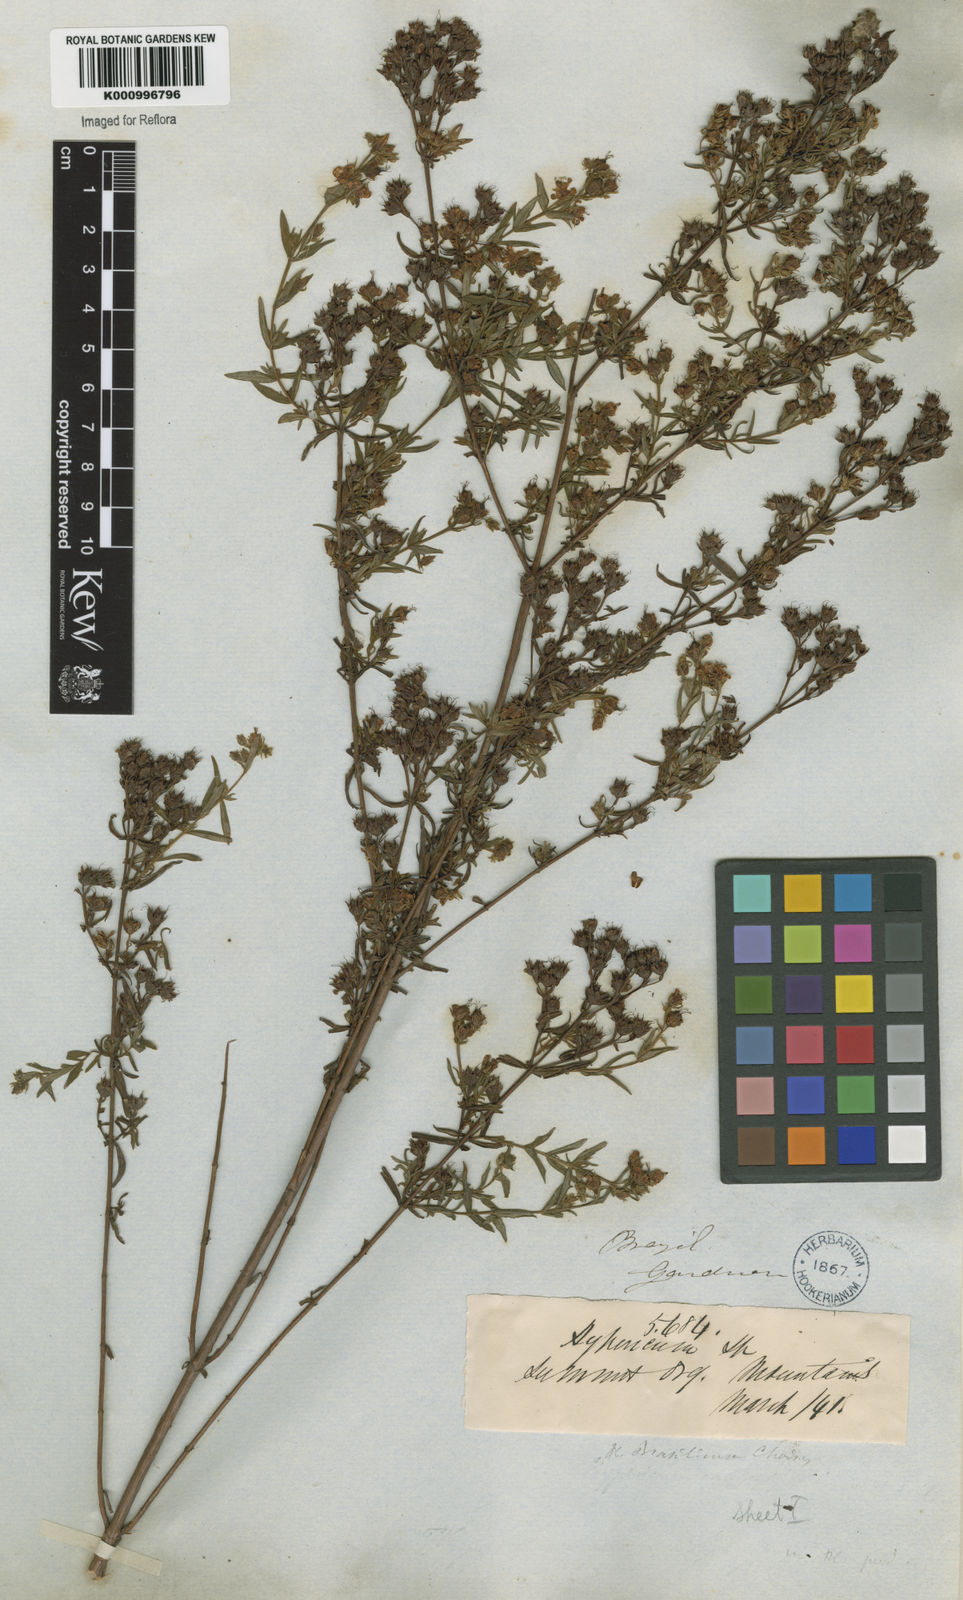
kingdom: Plantae
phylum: Tracheophyta
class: Magnoliopsida
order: Malpighiales
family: Hypericaceae
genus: Hypericum
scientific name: Hypericum brasiliense
